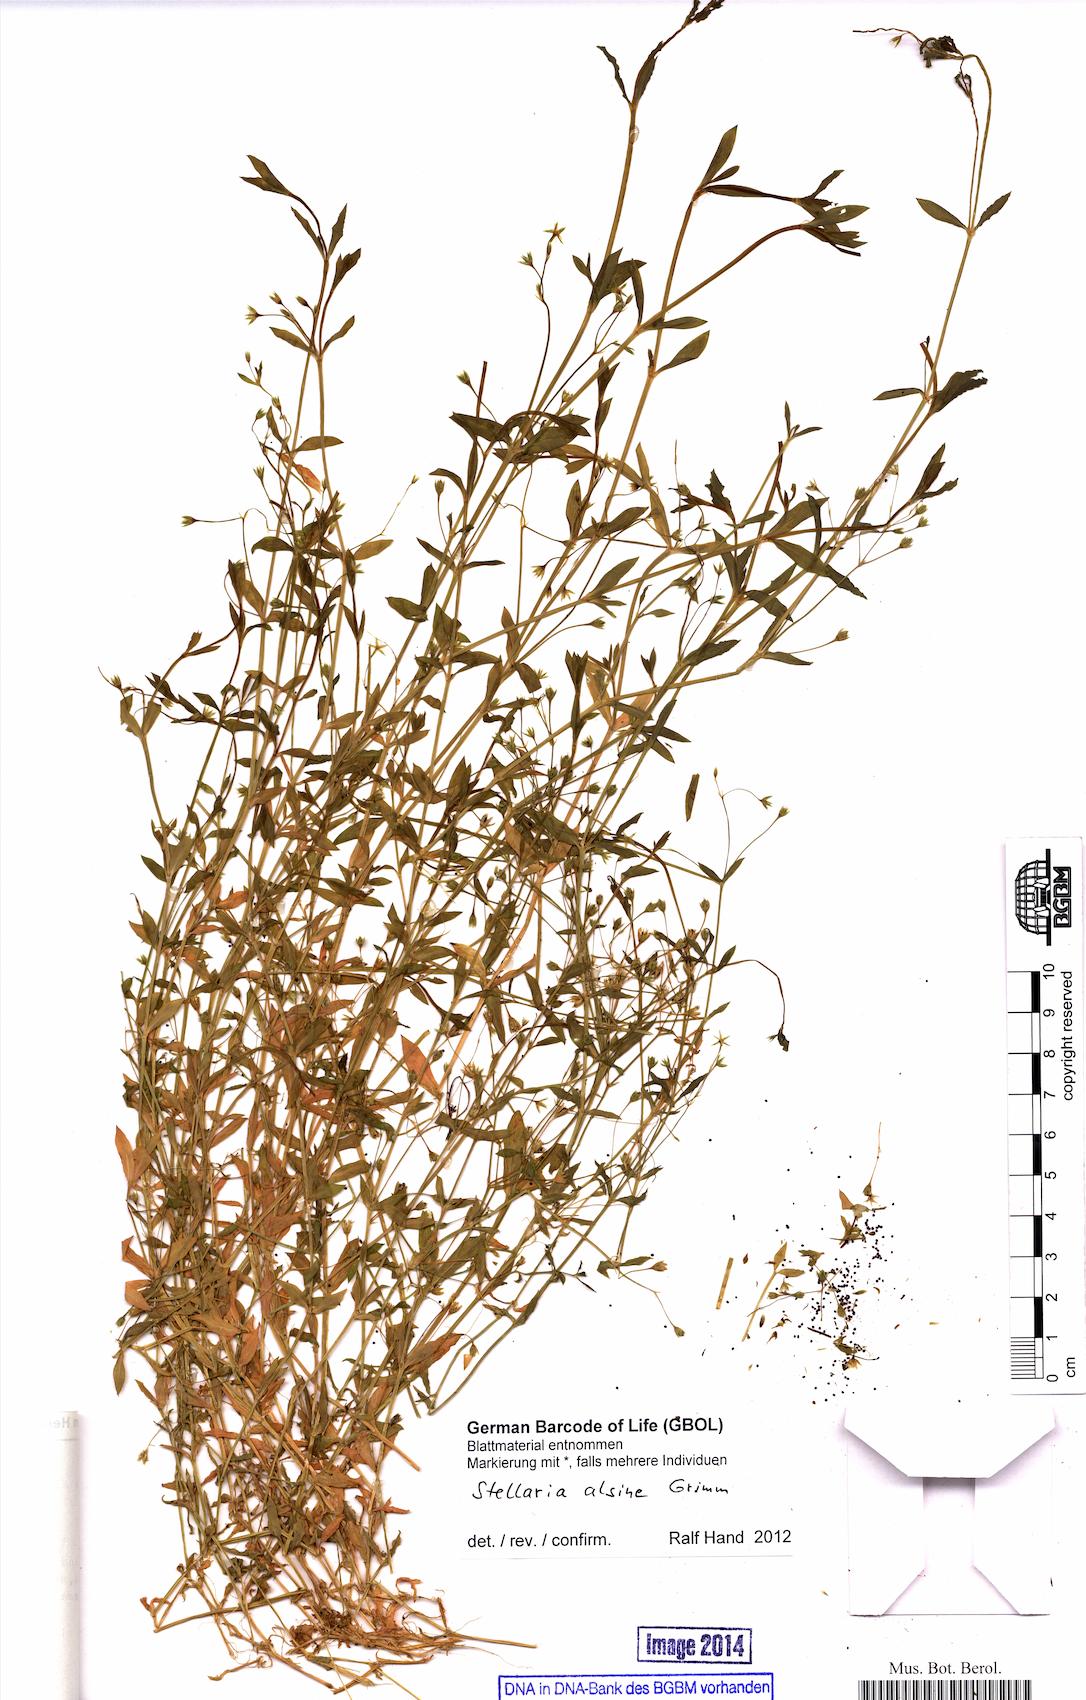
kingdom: Plantae
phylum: Tracheophyta
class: Magnoliopsida
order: Caryophyllales
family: Caryophyllaceae
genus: Stellaria
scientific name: Stellaria alsine
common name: Bog stitchwort
